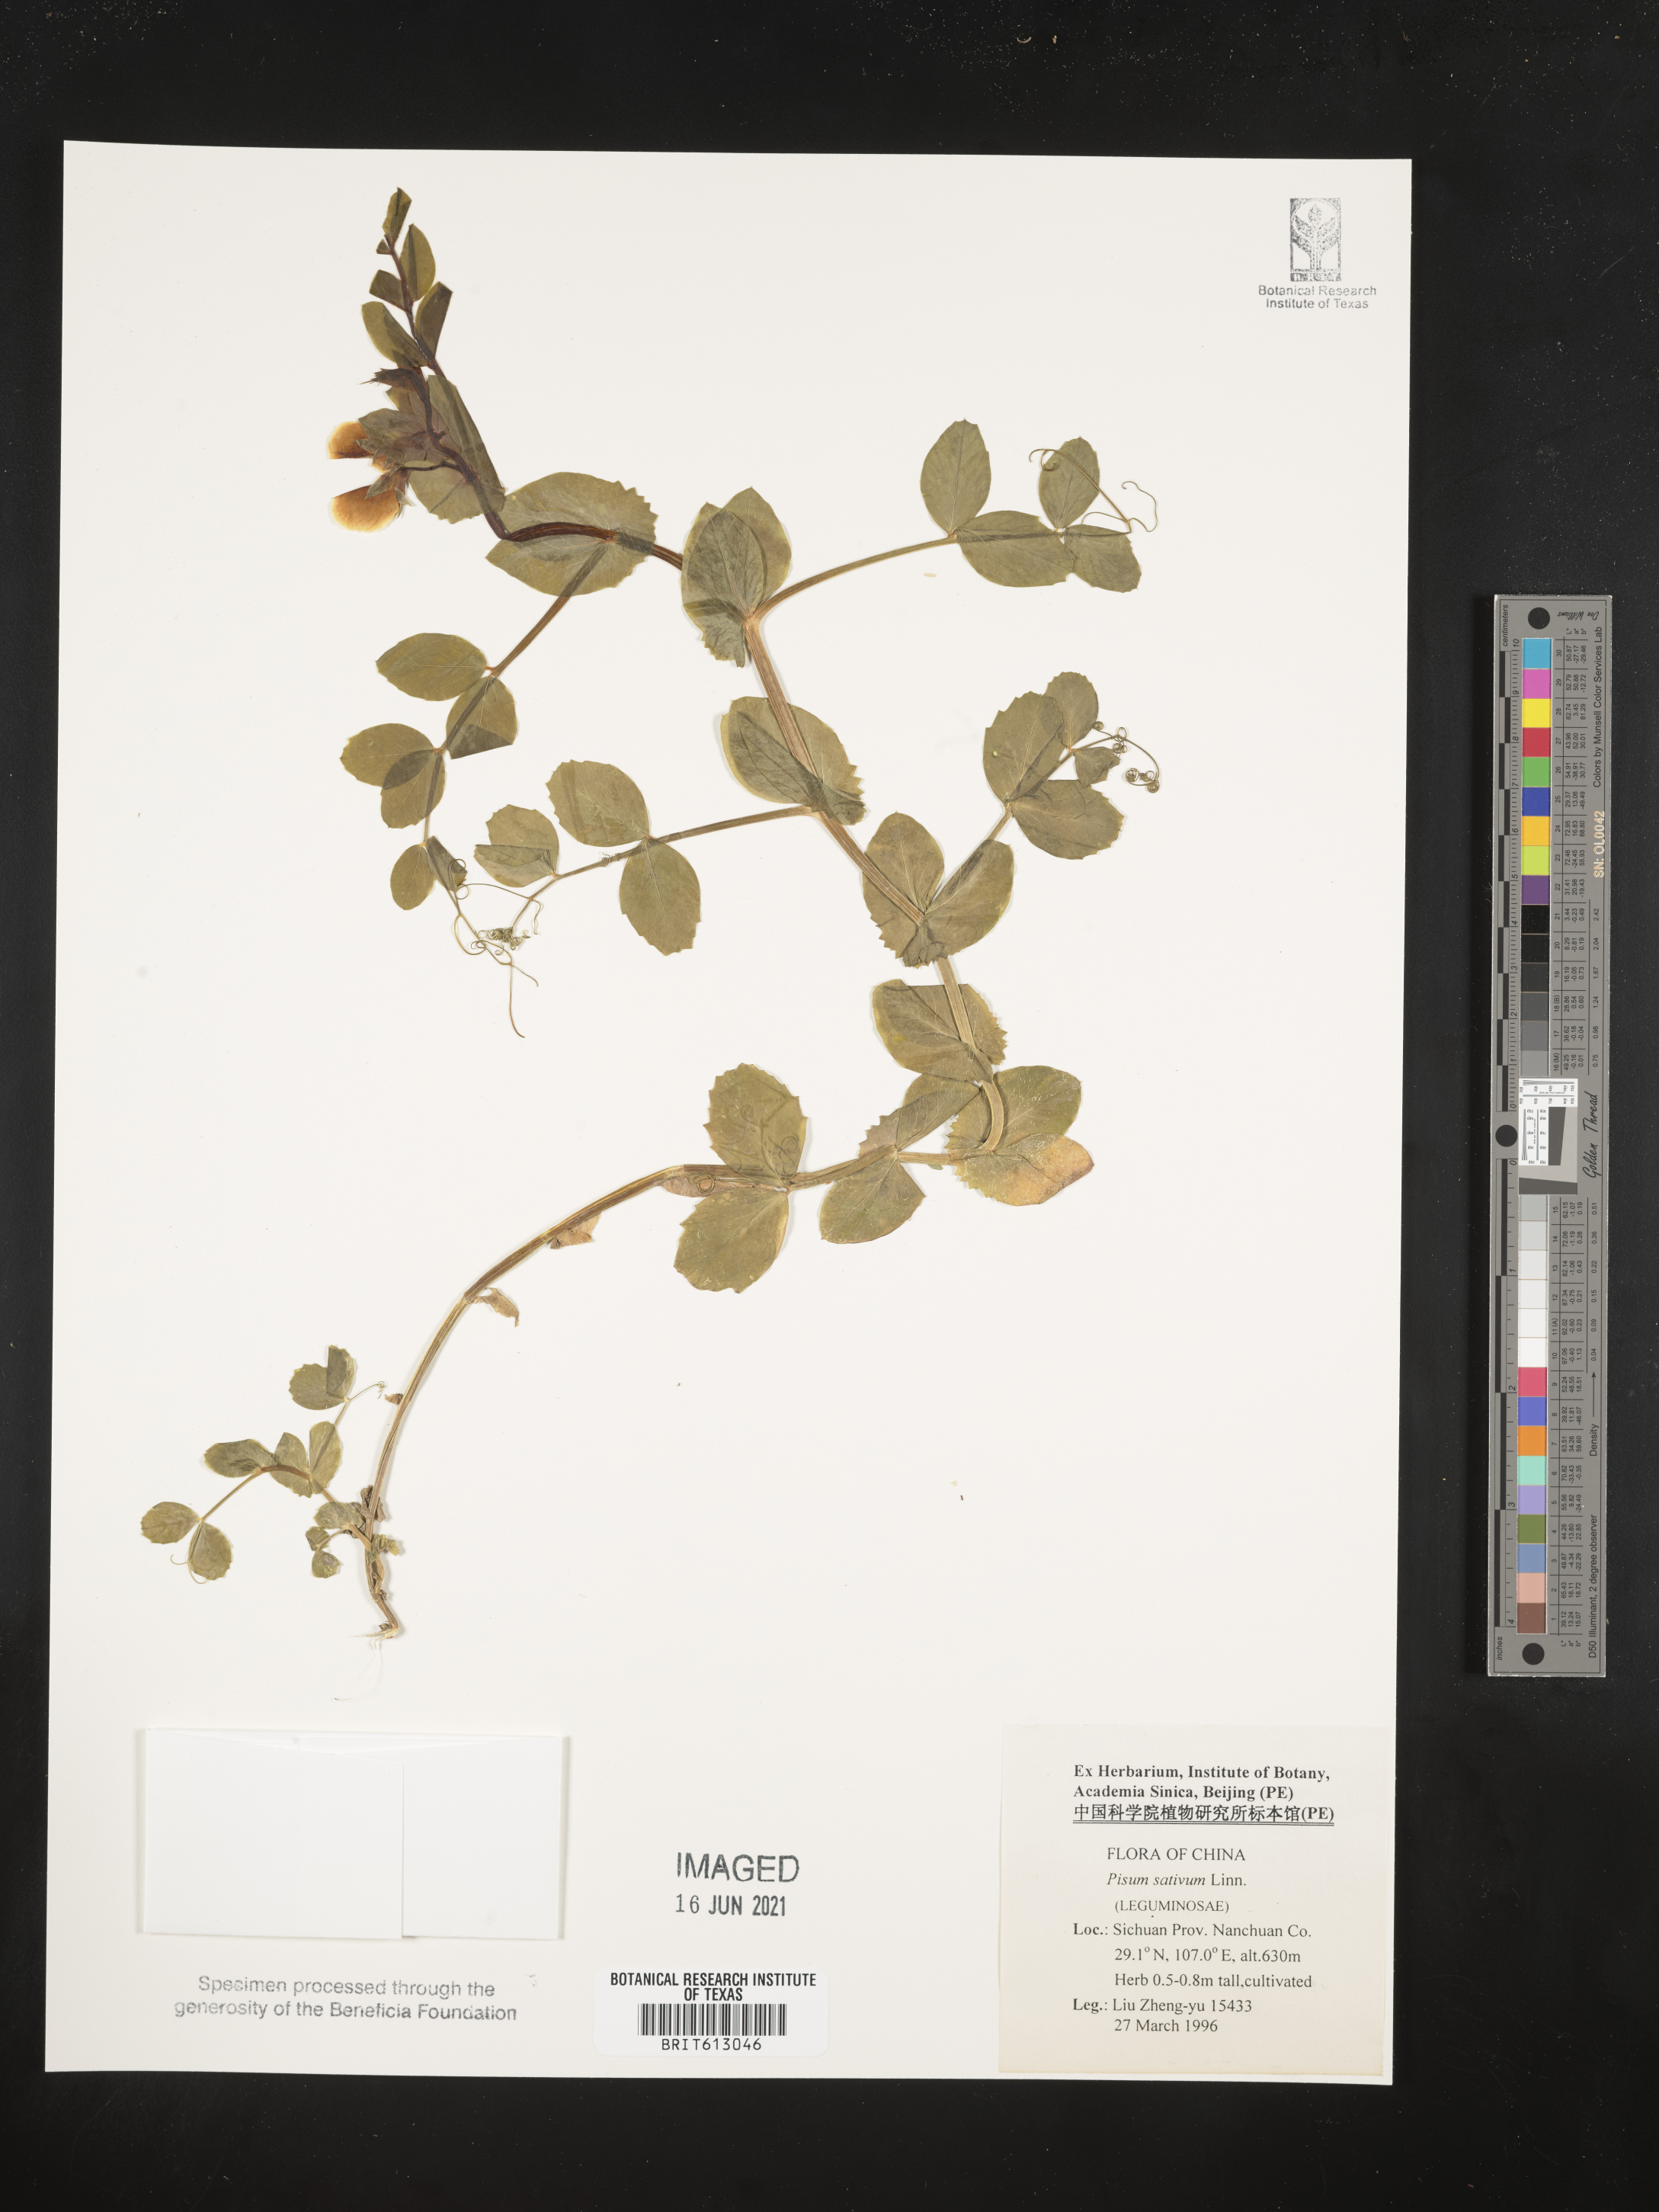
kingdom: Plantae
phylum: Tracheophyta
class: Magnoliopsida
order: Fabales
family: Fabaceae
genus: Lathyrus
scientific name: Lathyrus oleraceus
